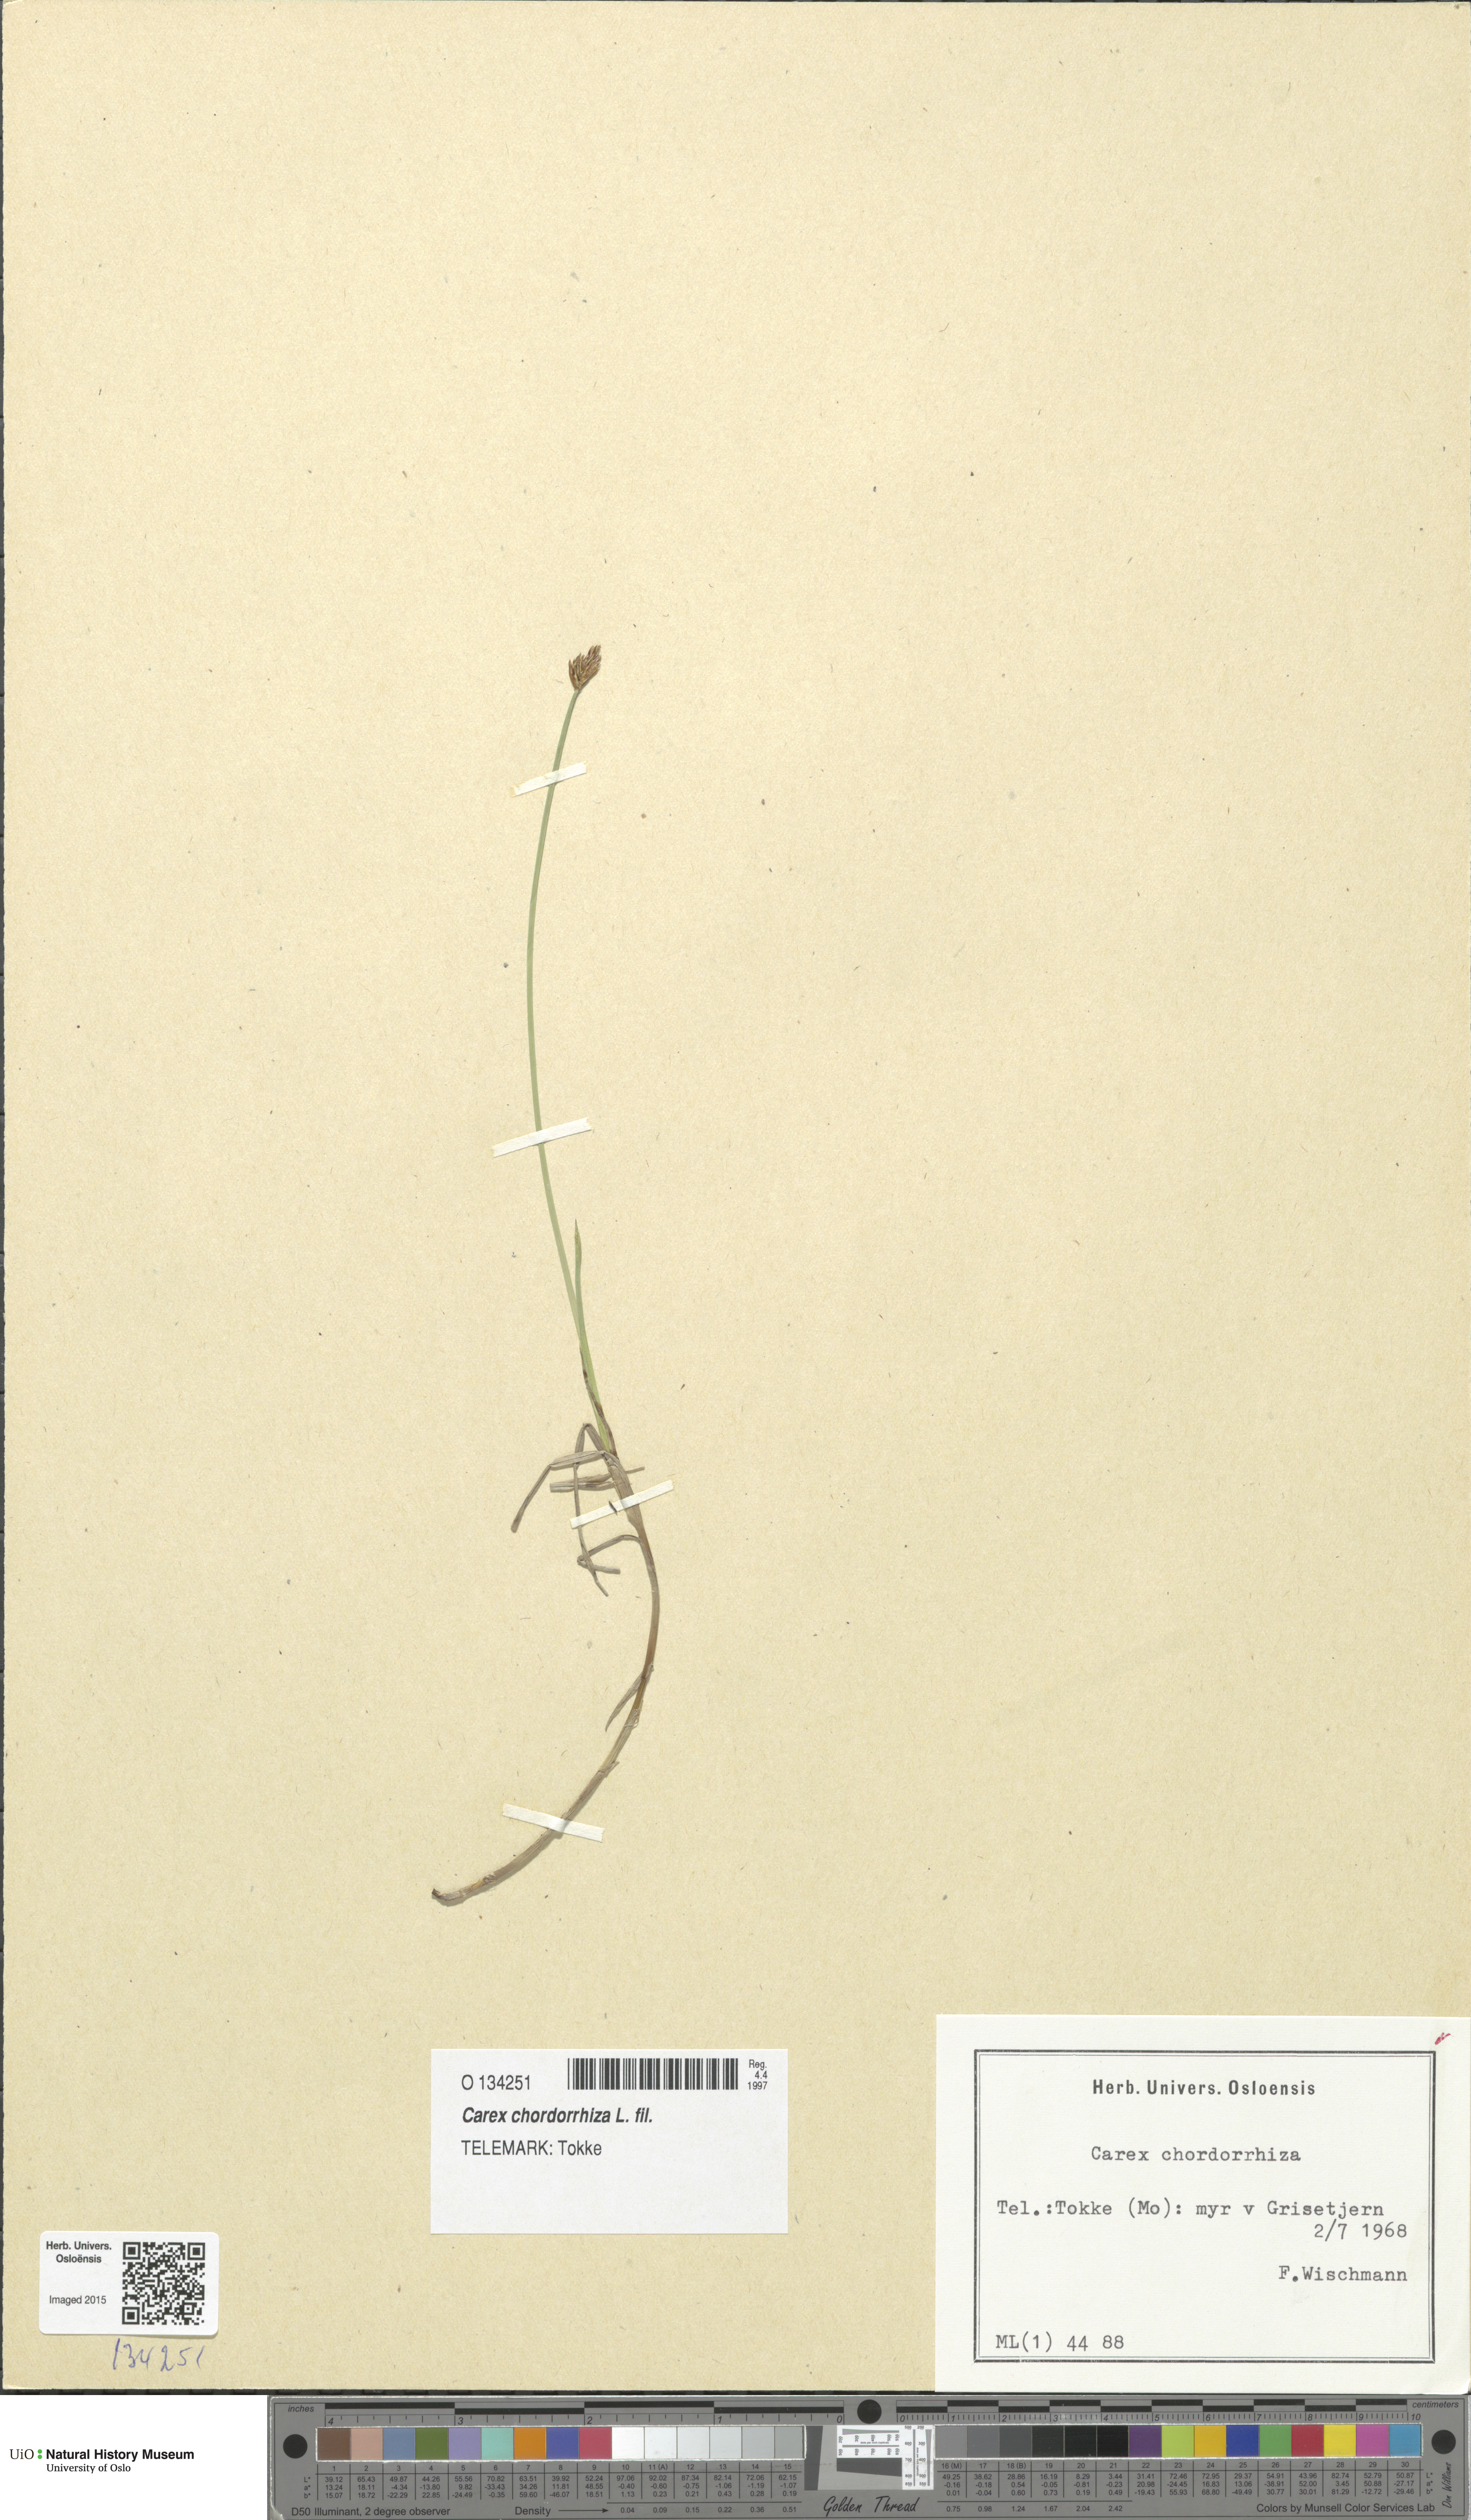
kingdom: Plantae
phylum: Tracheophyta
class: Liliopsida
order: Poales
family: Cyperaceae
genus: Carex
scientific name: Carex chordorrhiza
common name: String sedge
